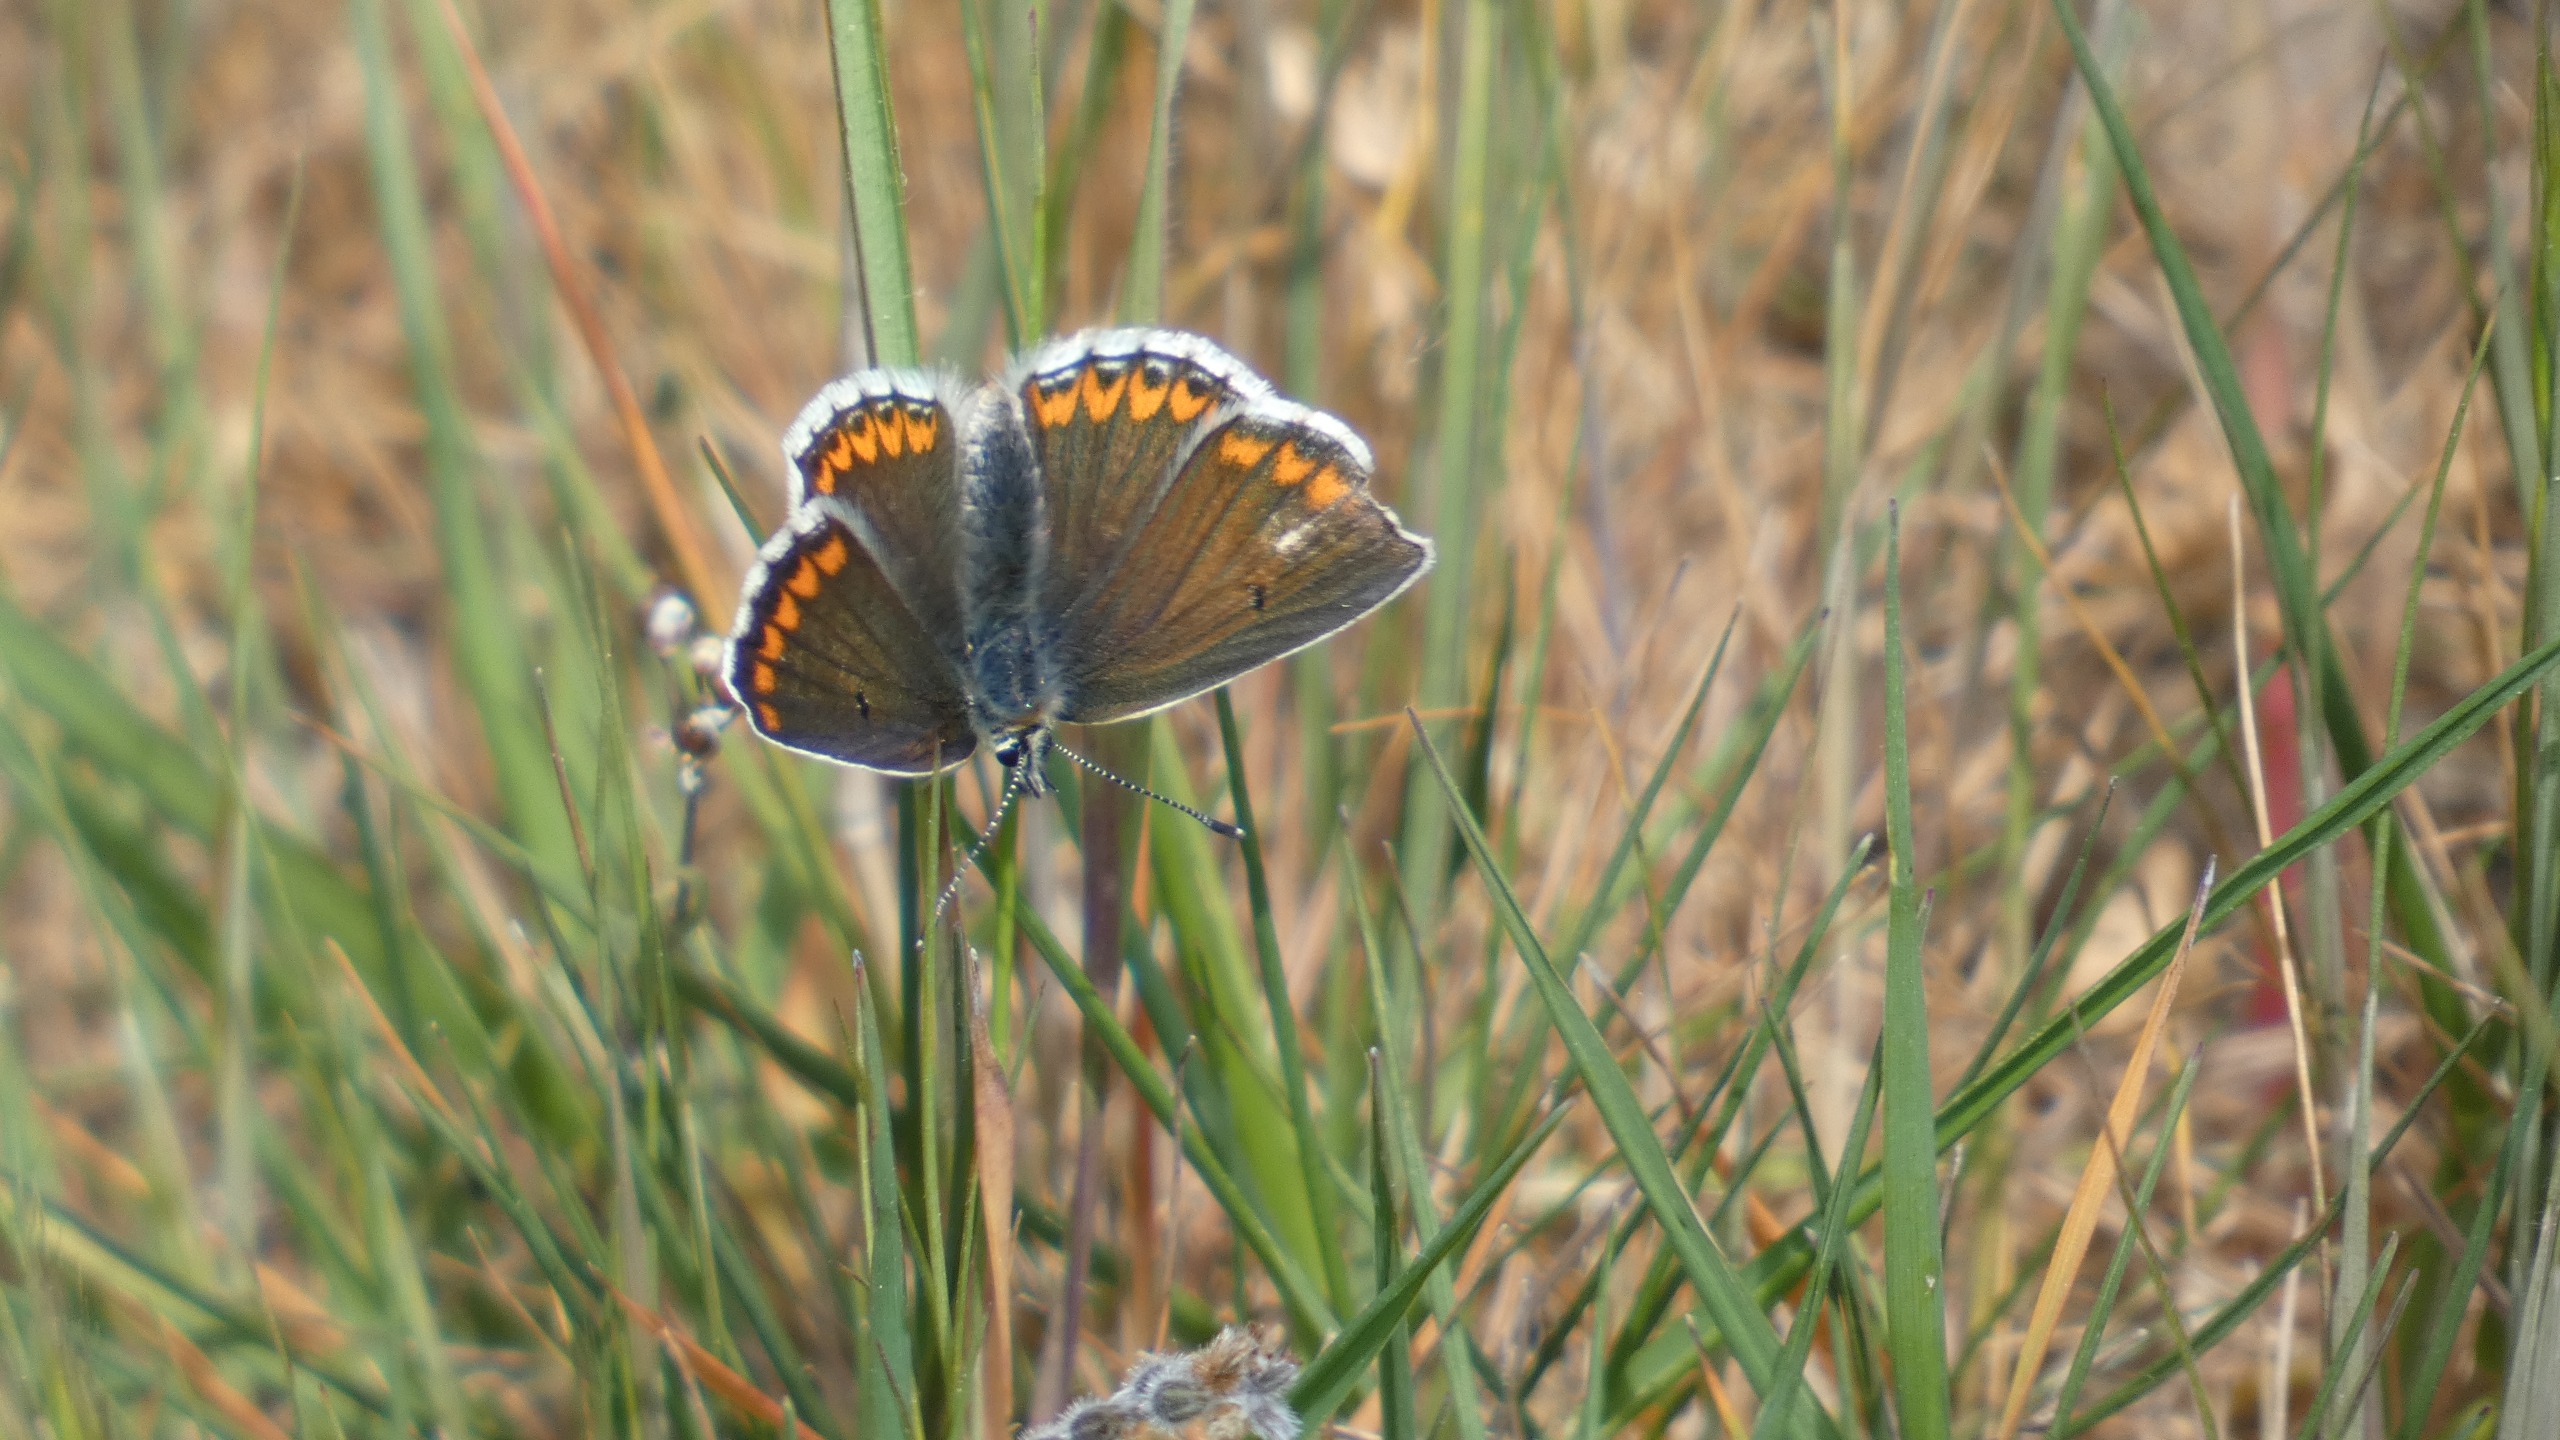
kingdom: Animalia
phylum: Arthropoda
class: Insecta
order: Lepidoptera
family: Lycaenidae
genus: Aricia
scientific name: Aricia agestis
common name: Rødplettet blåfugl
